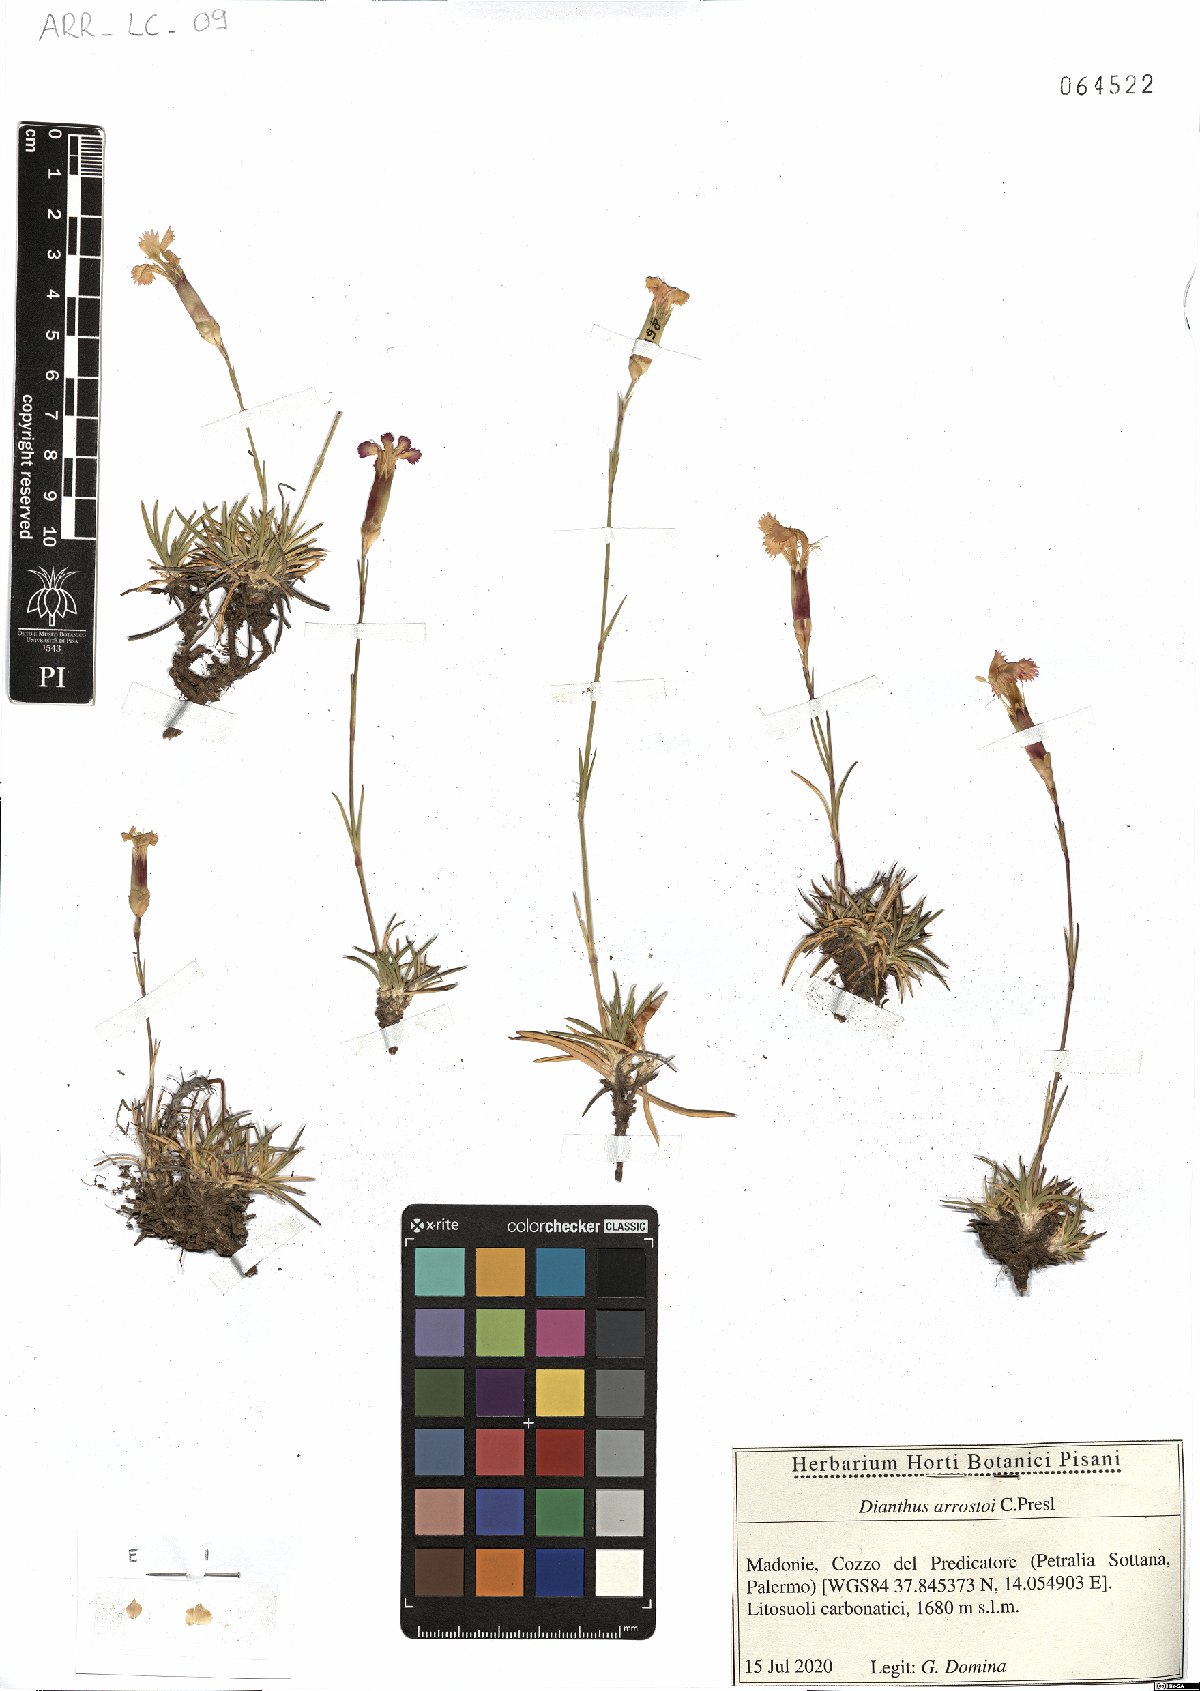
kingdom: Plantae
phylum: Tracheophyta
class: Magnoliopsida
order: Caryophyllales
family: Caryophyllaceae
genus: Dianthus
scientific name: Dianthus arrostoi
